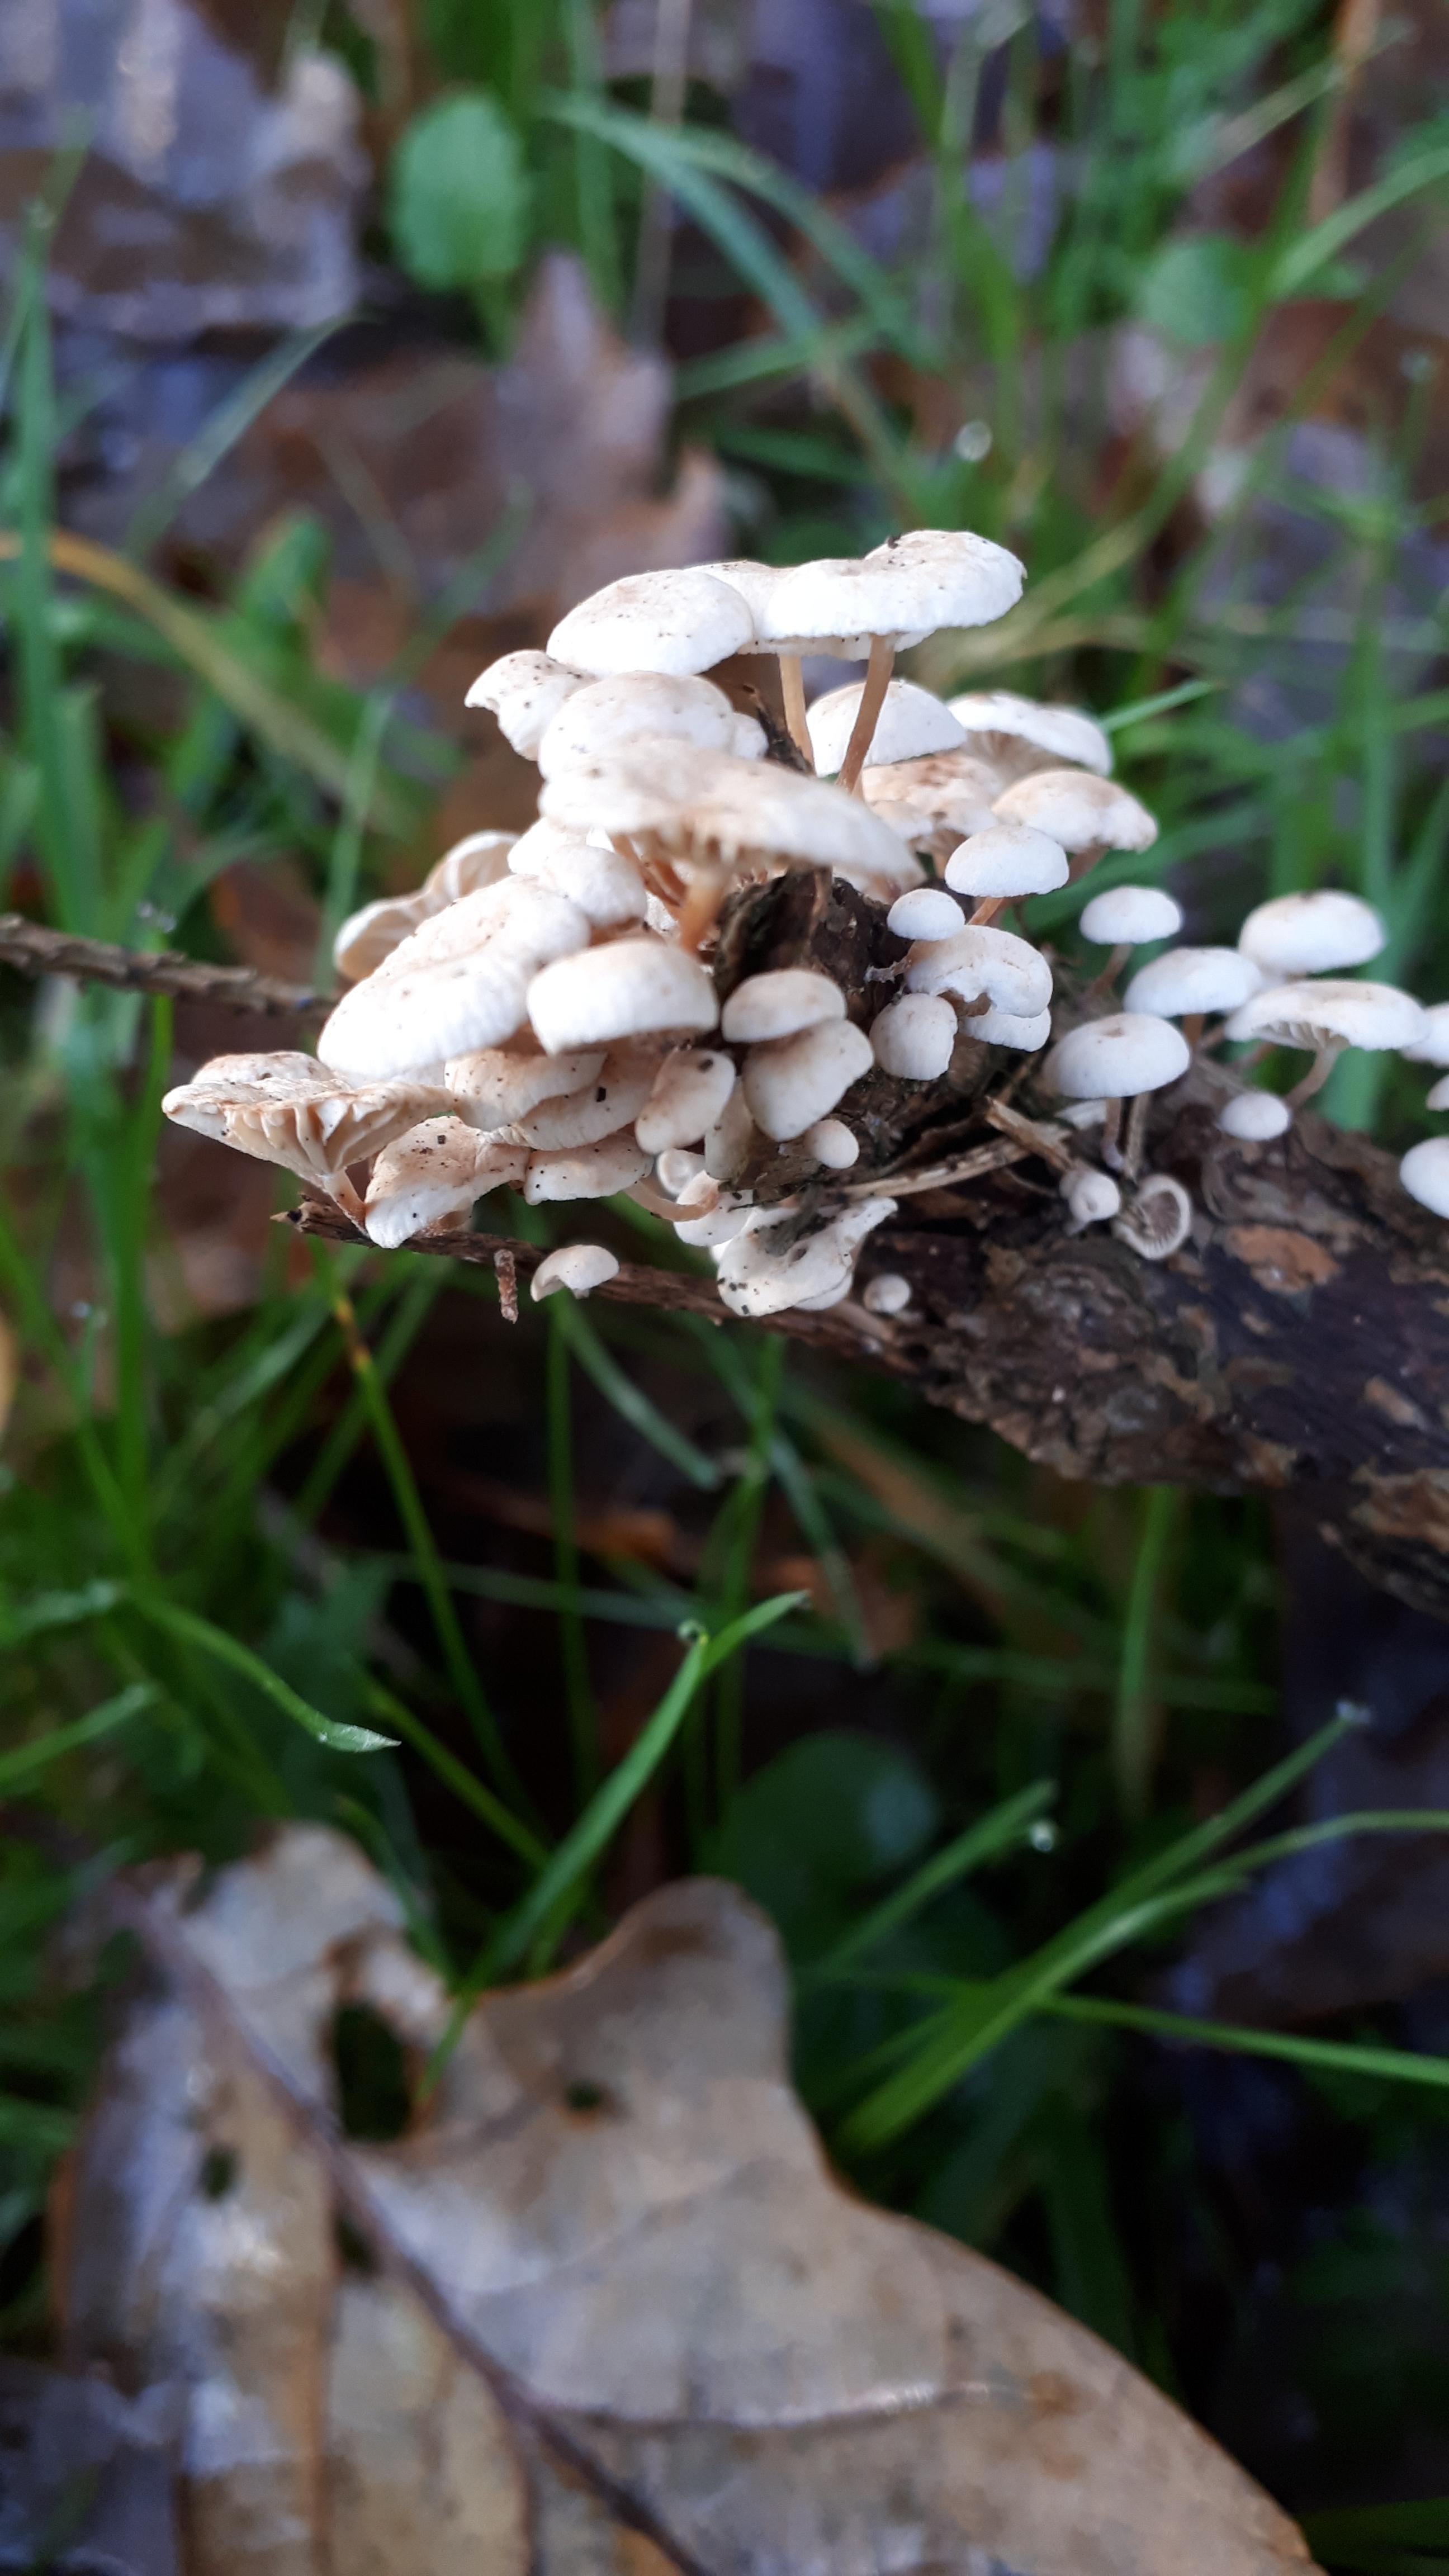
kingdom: Fungi
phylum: Basidiomycota
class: Agaricomycetes
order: Agaricales
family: Omphalotaceae
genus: Collybiopsis
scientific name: Collybiopsis ramealis
